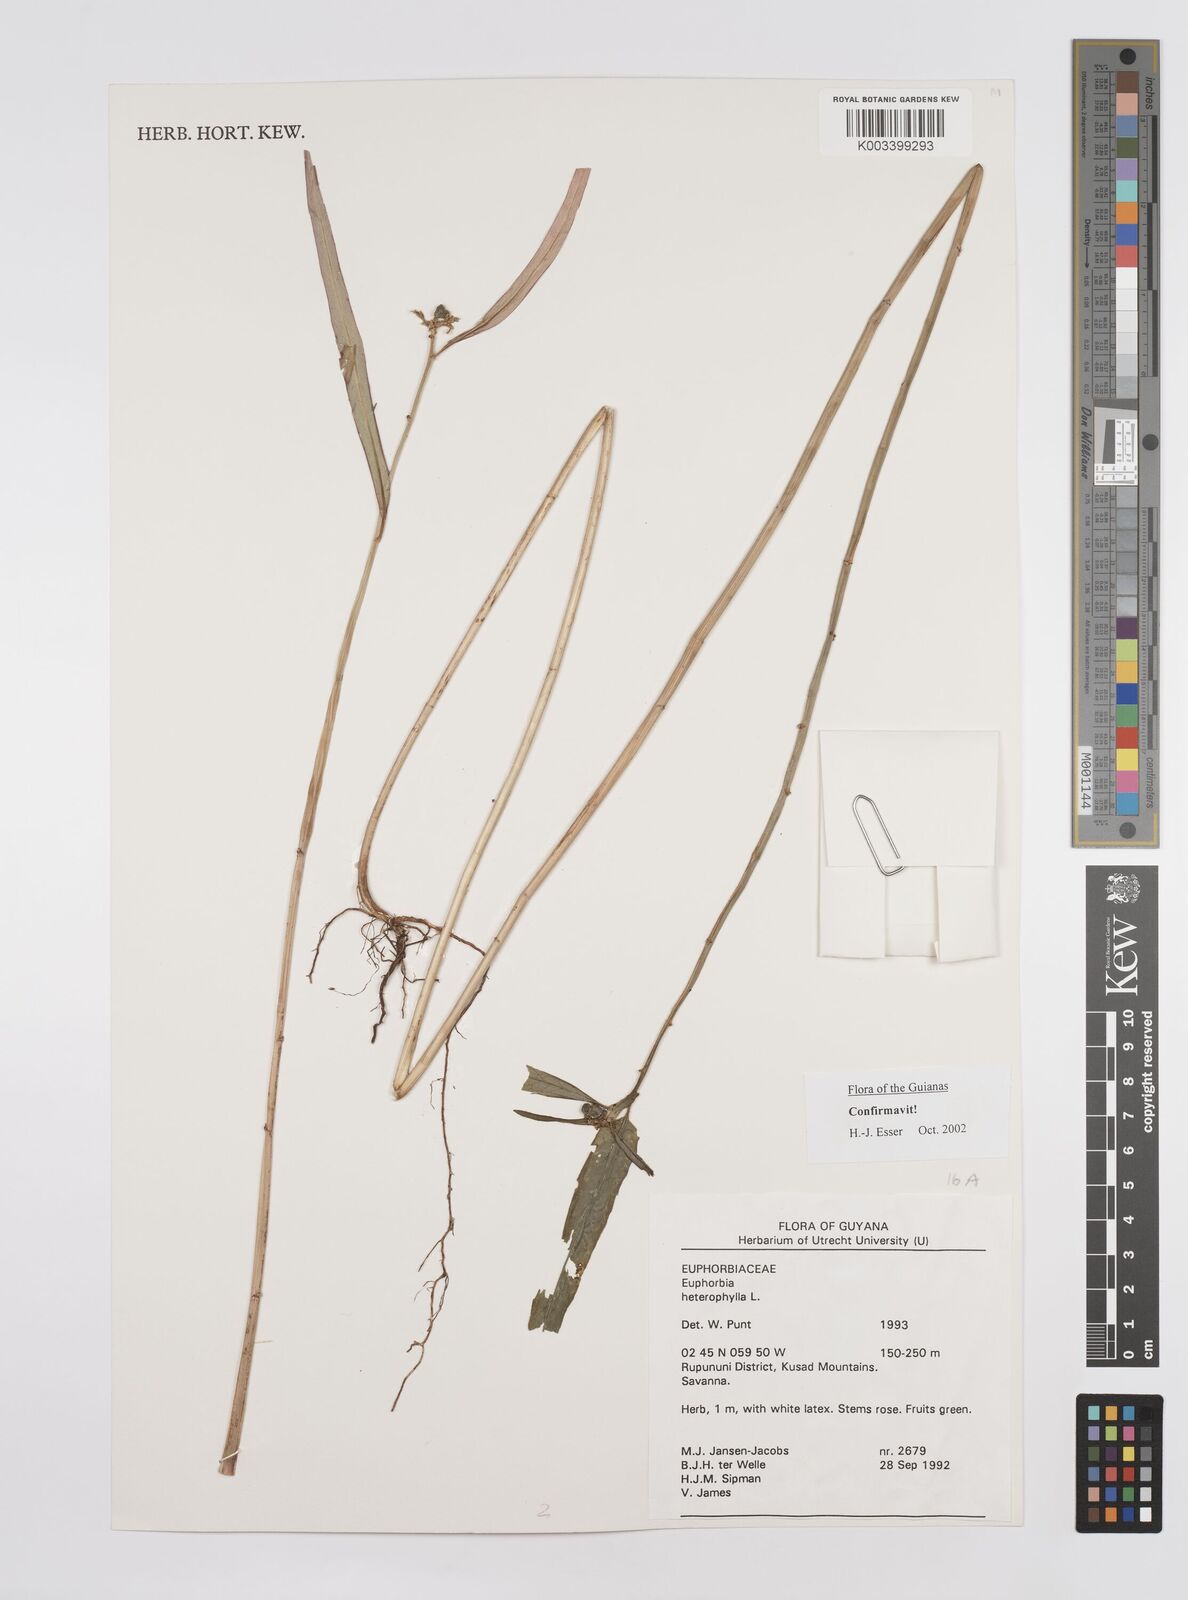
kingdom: Plantae
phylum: Tracheophyta
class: Magnoliopsida
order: Malpighiales
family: Euphorbiaceae
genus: Euphorbia
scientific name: Euphorbia heterophylla
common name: Mexican fireplant
